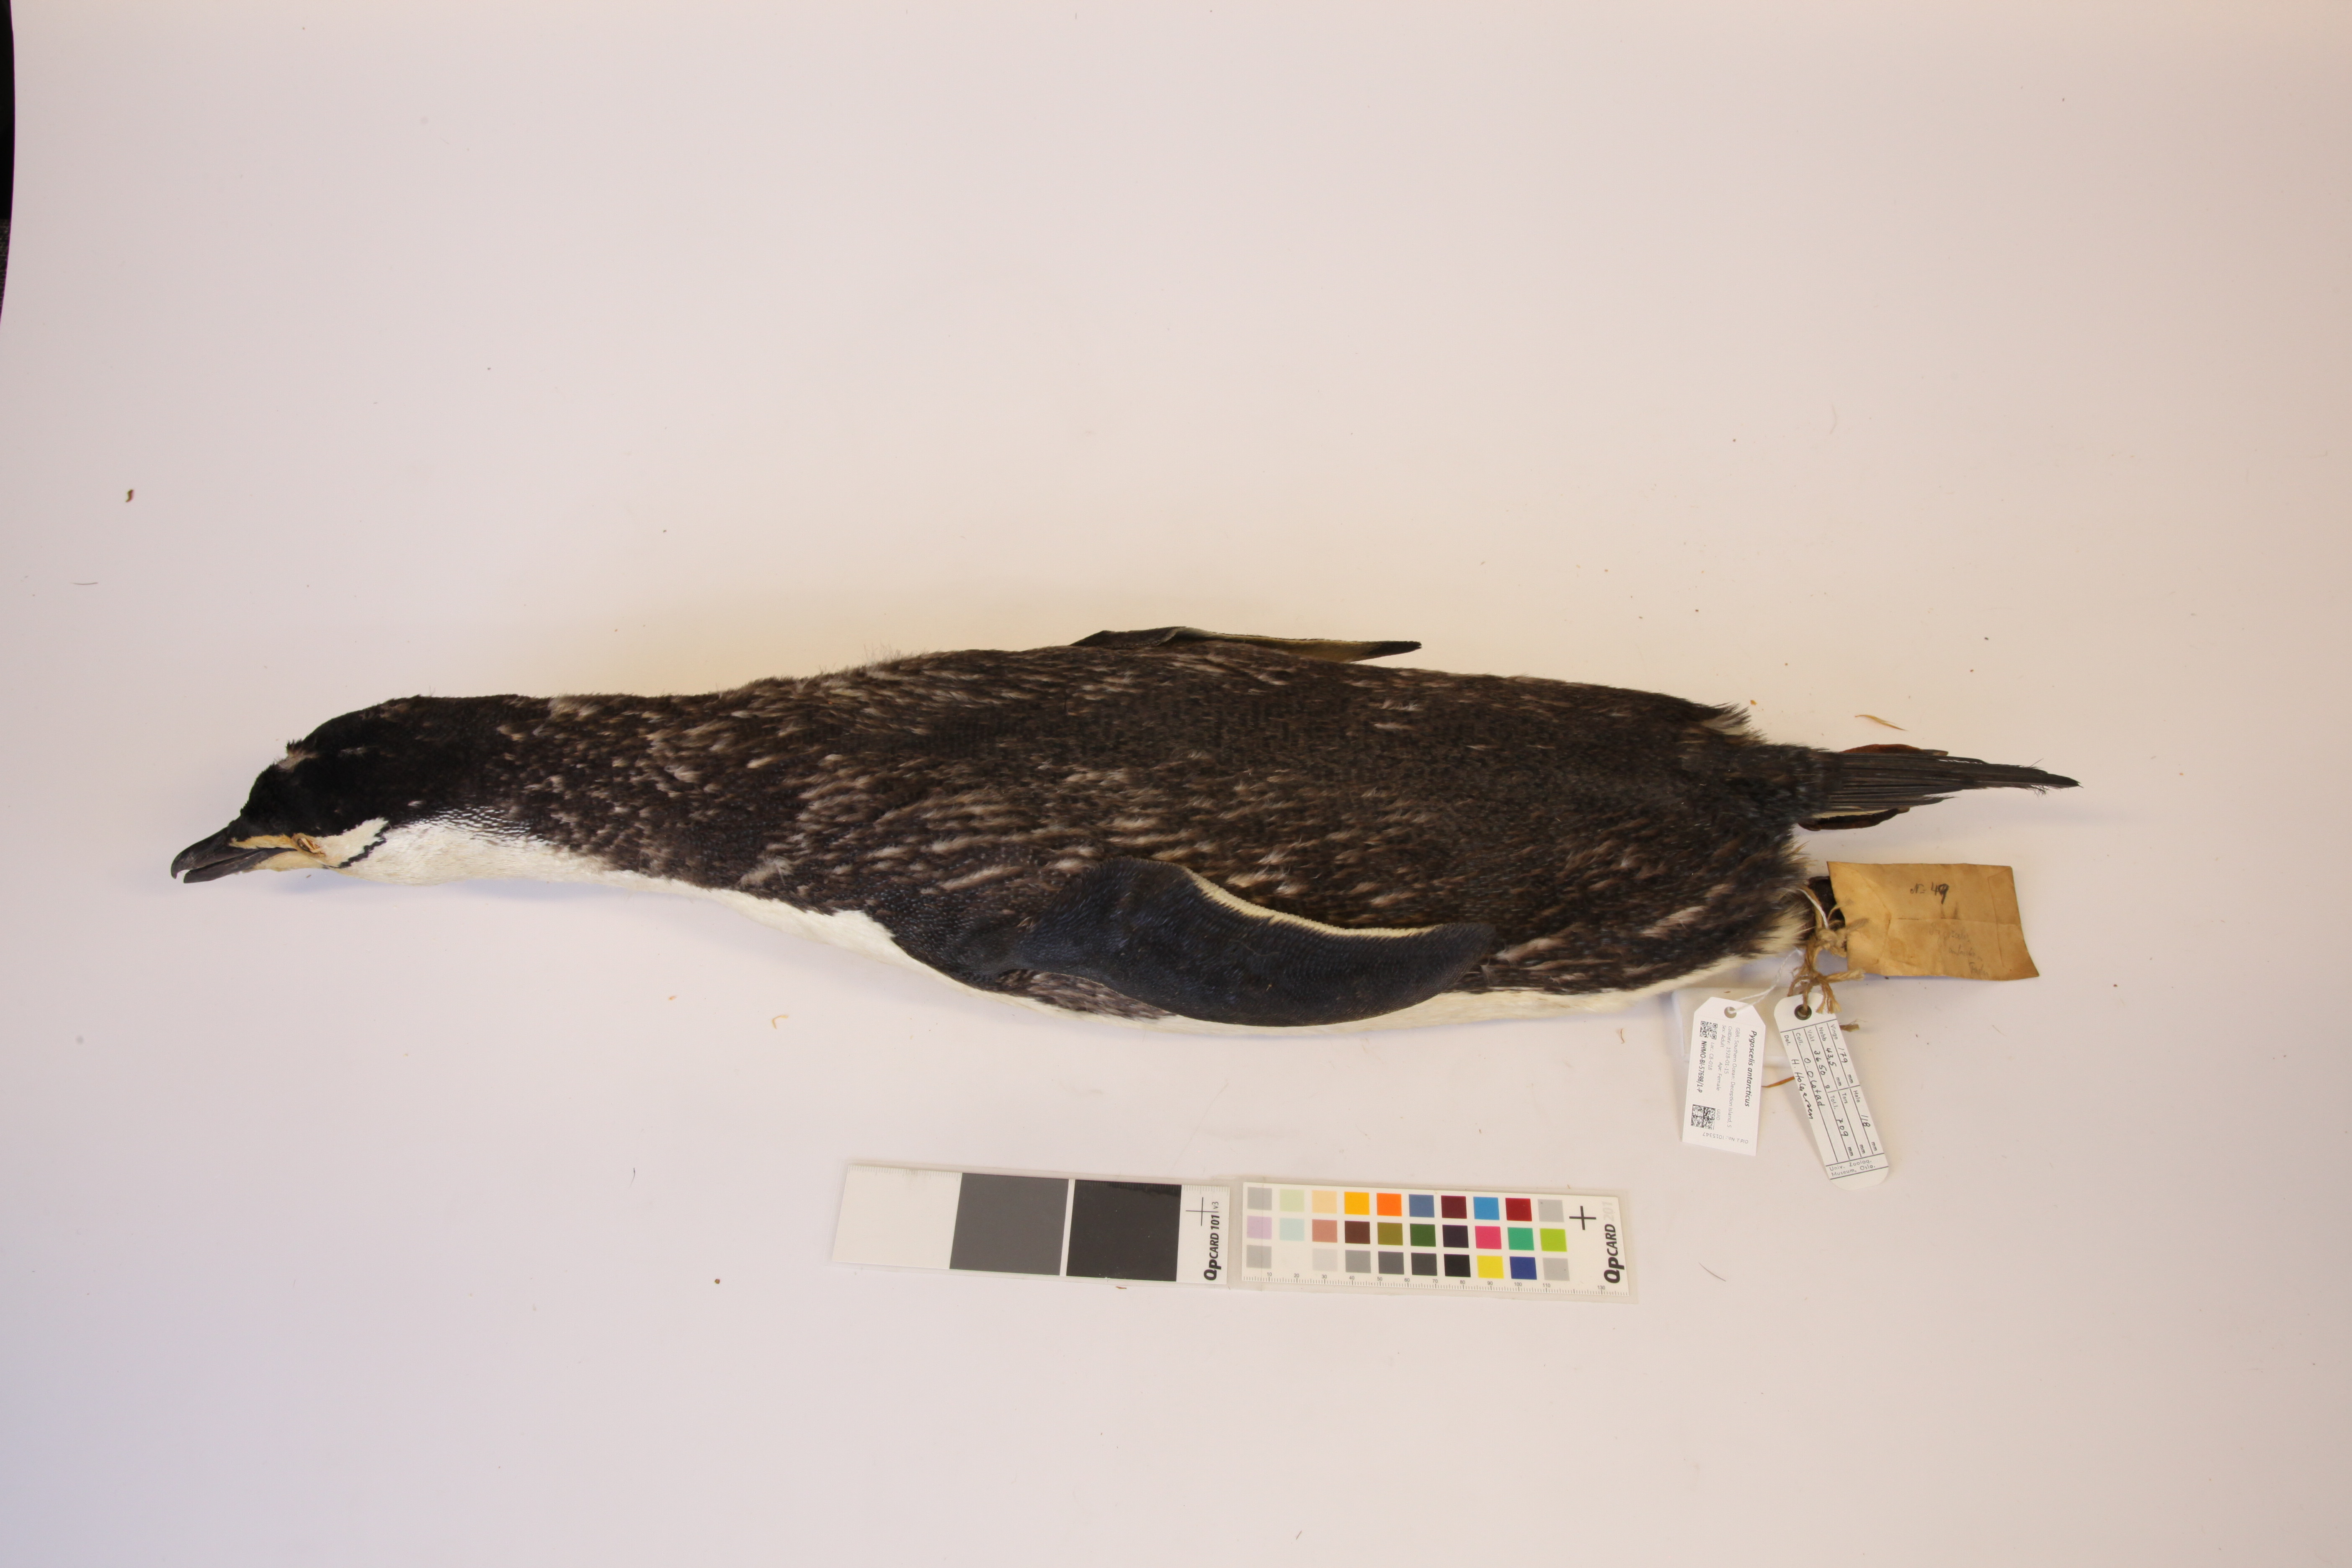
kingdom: Animalia
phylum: Chordata
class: Aves
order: Sphenisciformes
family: Spheniscidae
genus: Pygoscelis
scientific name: Pygoscelis antarcticus
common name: Chinstrap penguin
